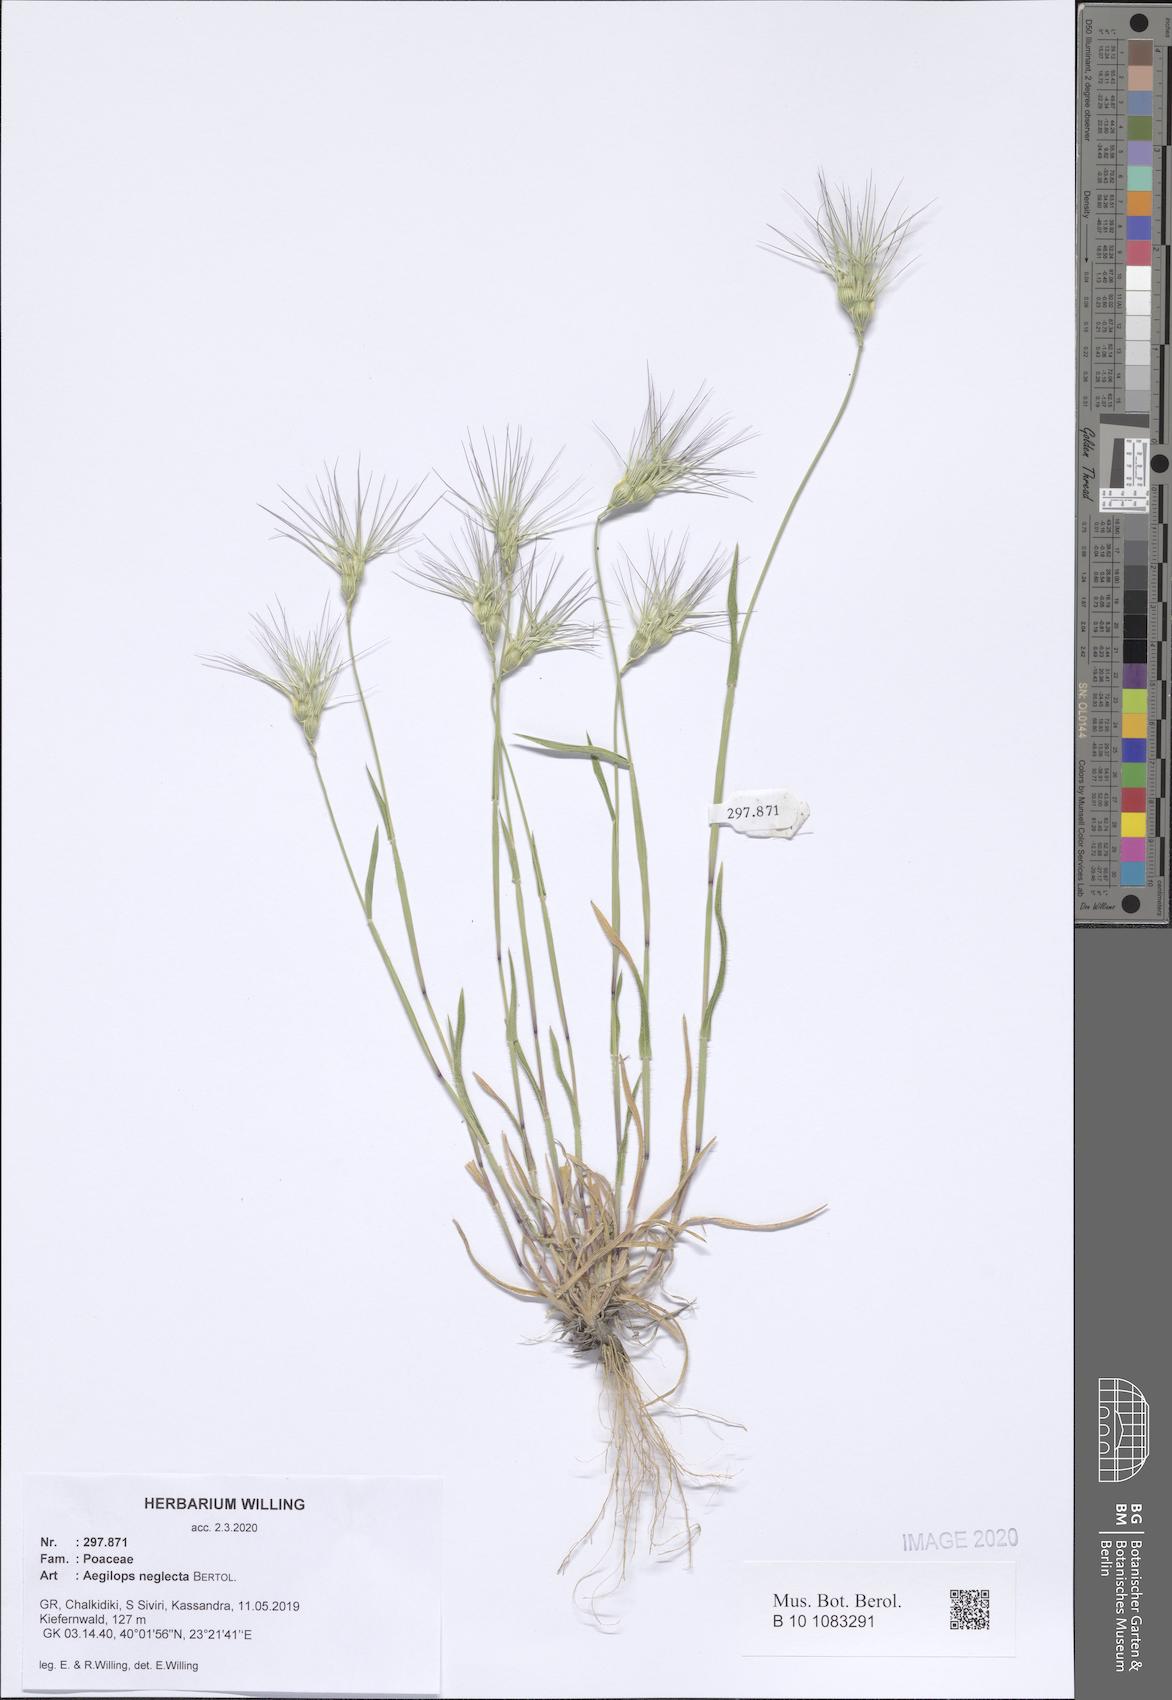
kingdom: Plantae
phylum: Tracheophyta
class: Liliopsida
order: Poales
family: Poaceae
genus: Aegilops
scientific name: Aegilops neglecta
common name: Three-awn goat grass
